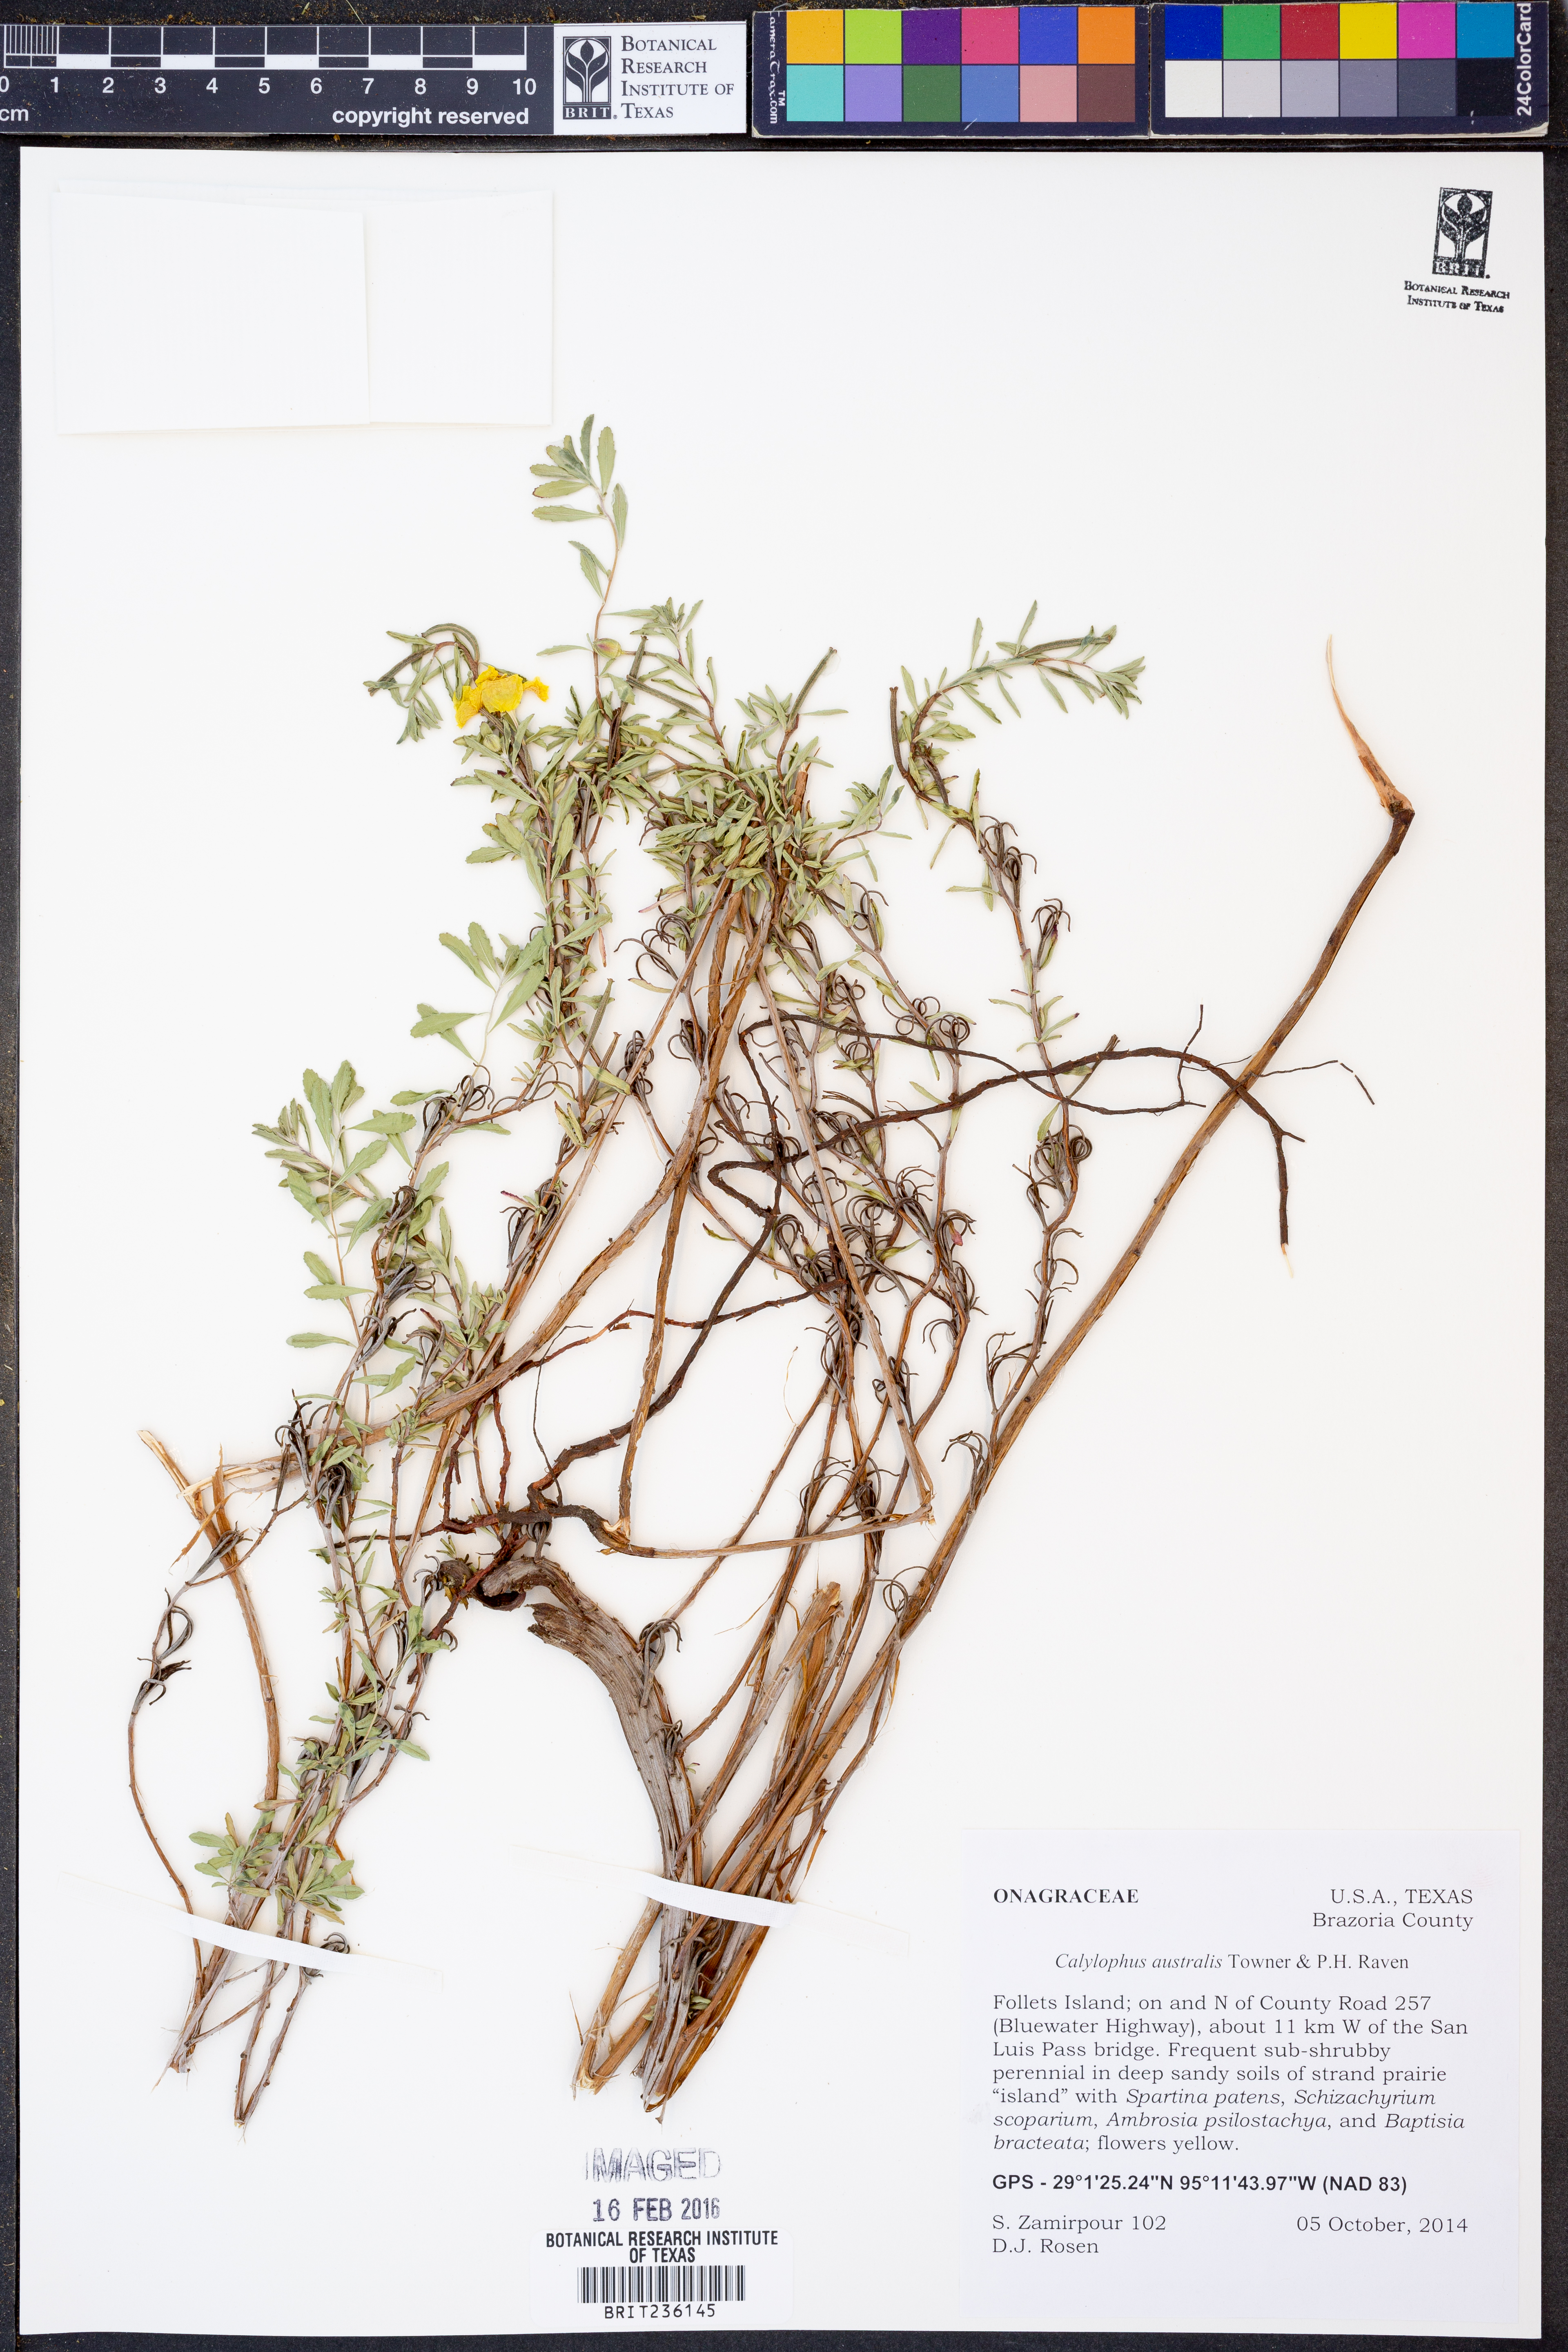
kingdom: Plantae
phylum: Tracheophyta
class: Magnoliopsida
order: Myrtales
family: Onagraceae
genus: Oenothera
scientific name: Oenothera serrulata
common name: Half-shrub calylophus
